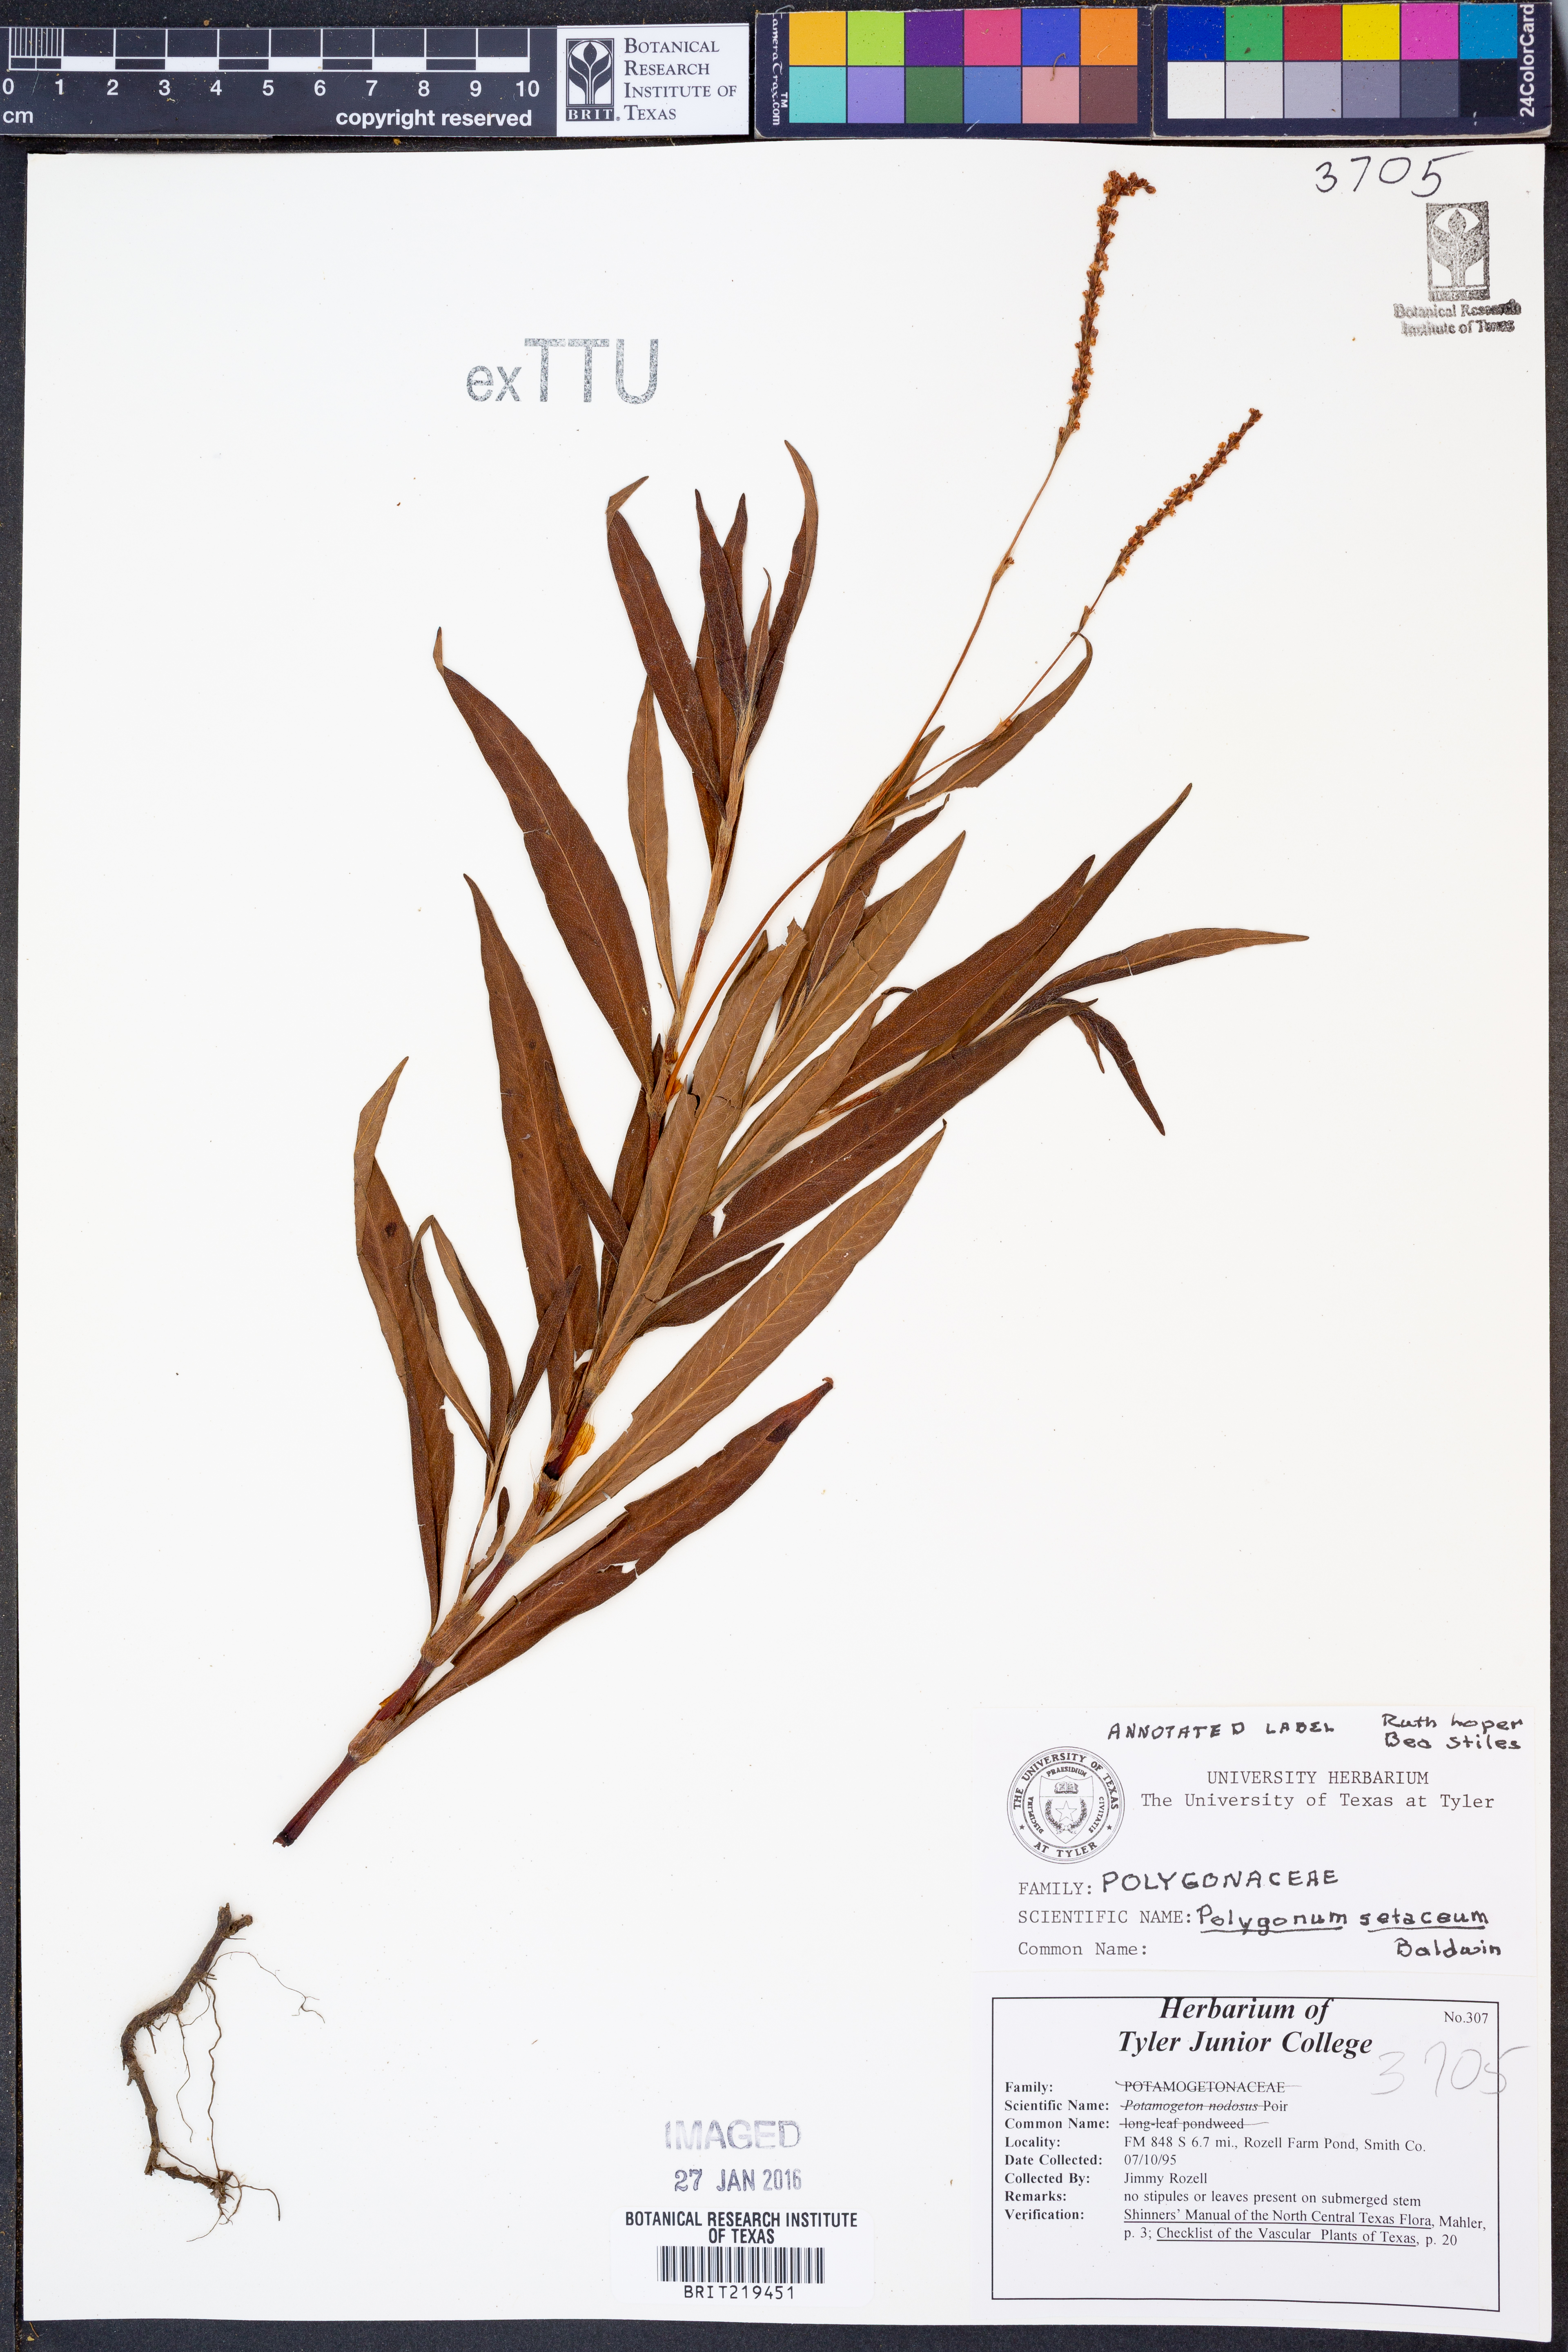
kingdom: Plantae
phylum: Tracheophyta
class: Magnoliopsida
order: Caryophyllales
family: Polygonaceae
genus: Persicaria
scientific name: Persicaria setacea
